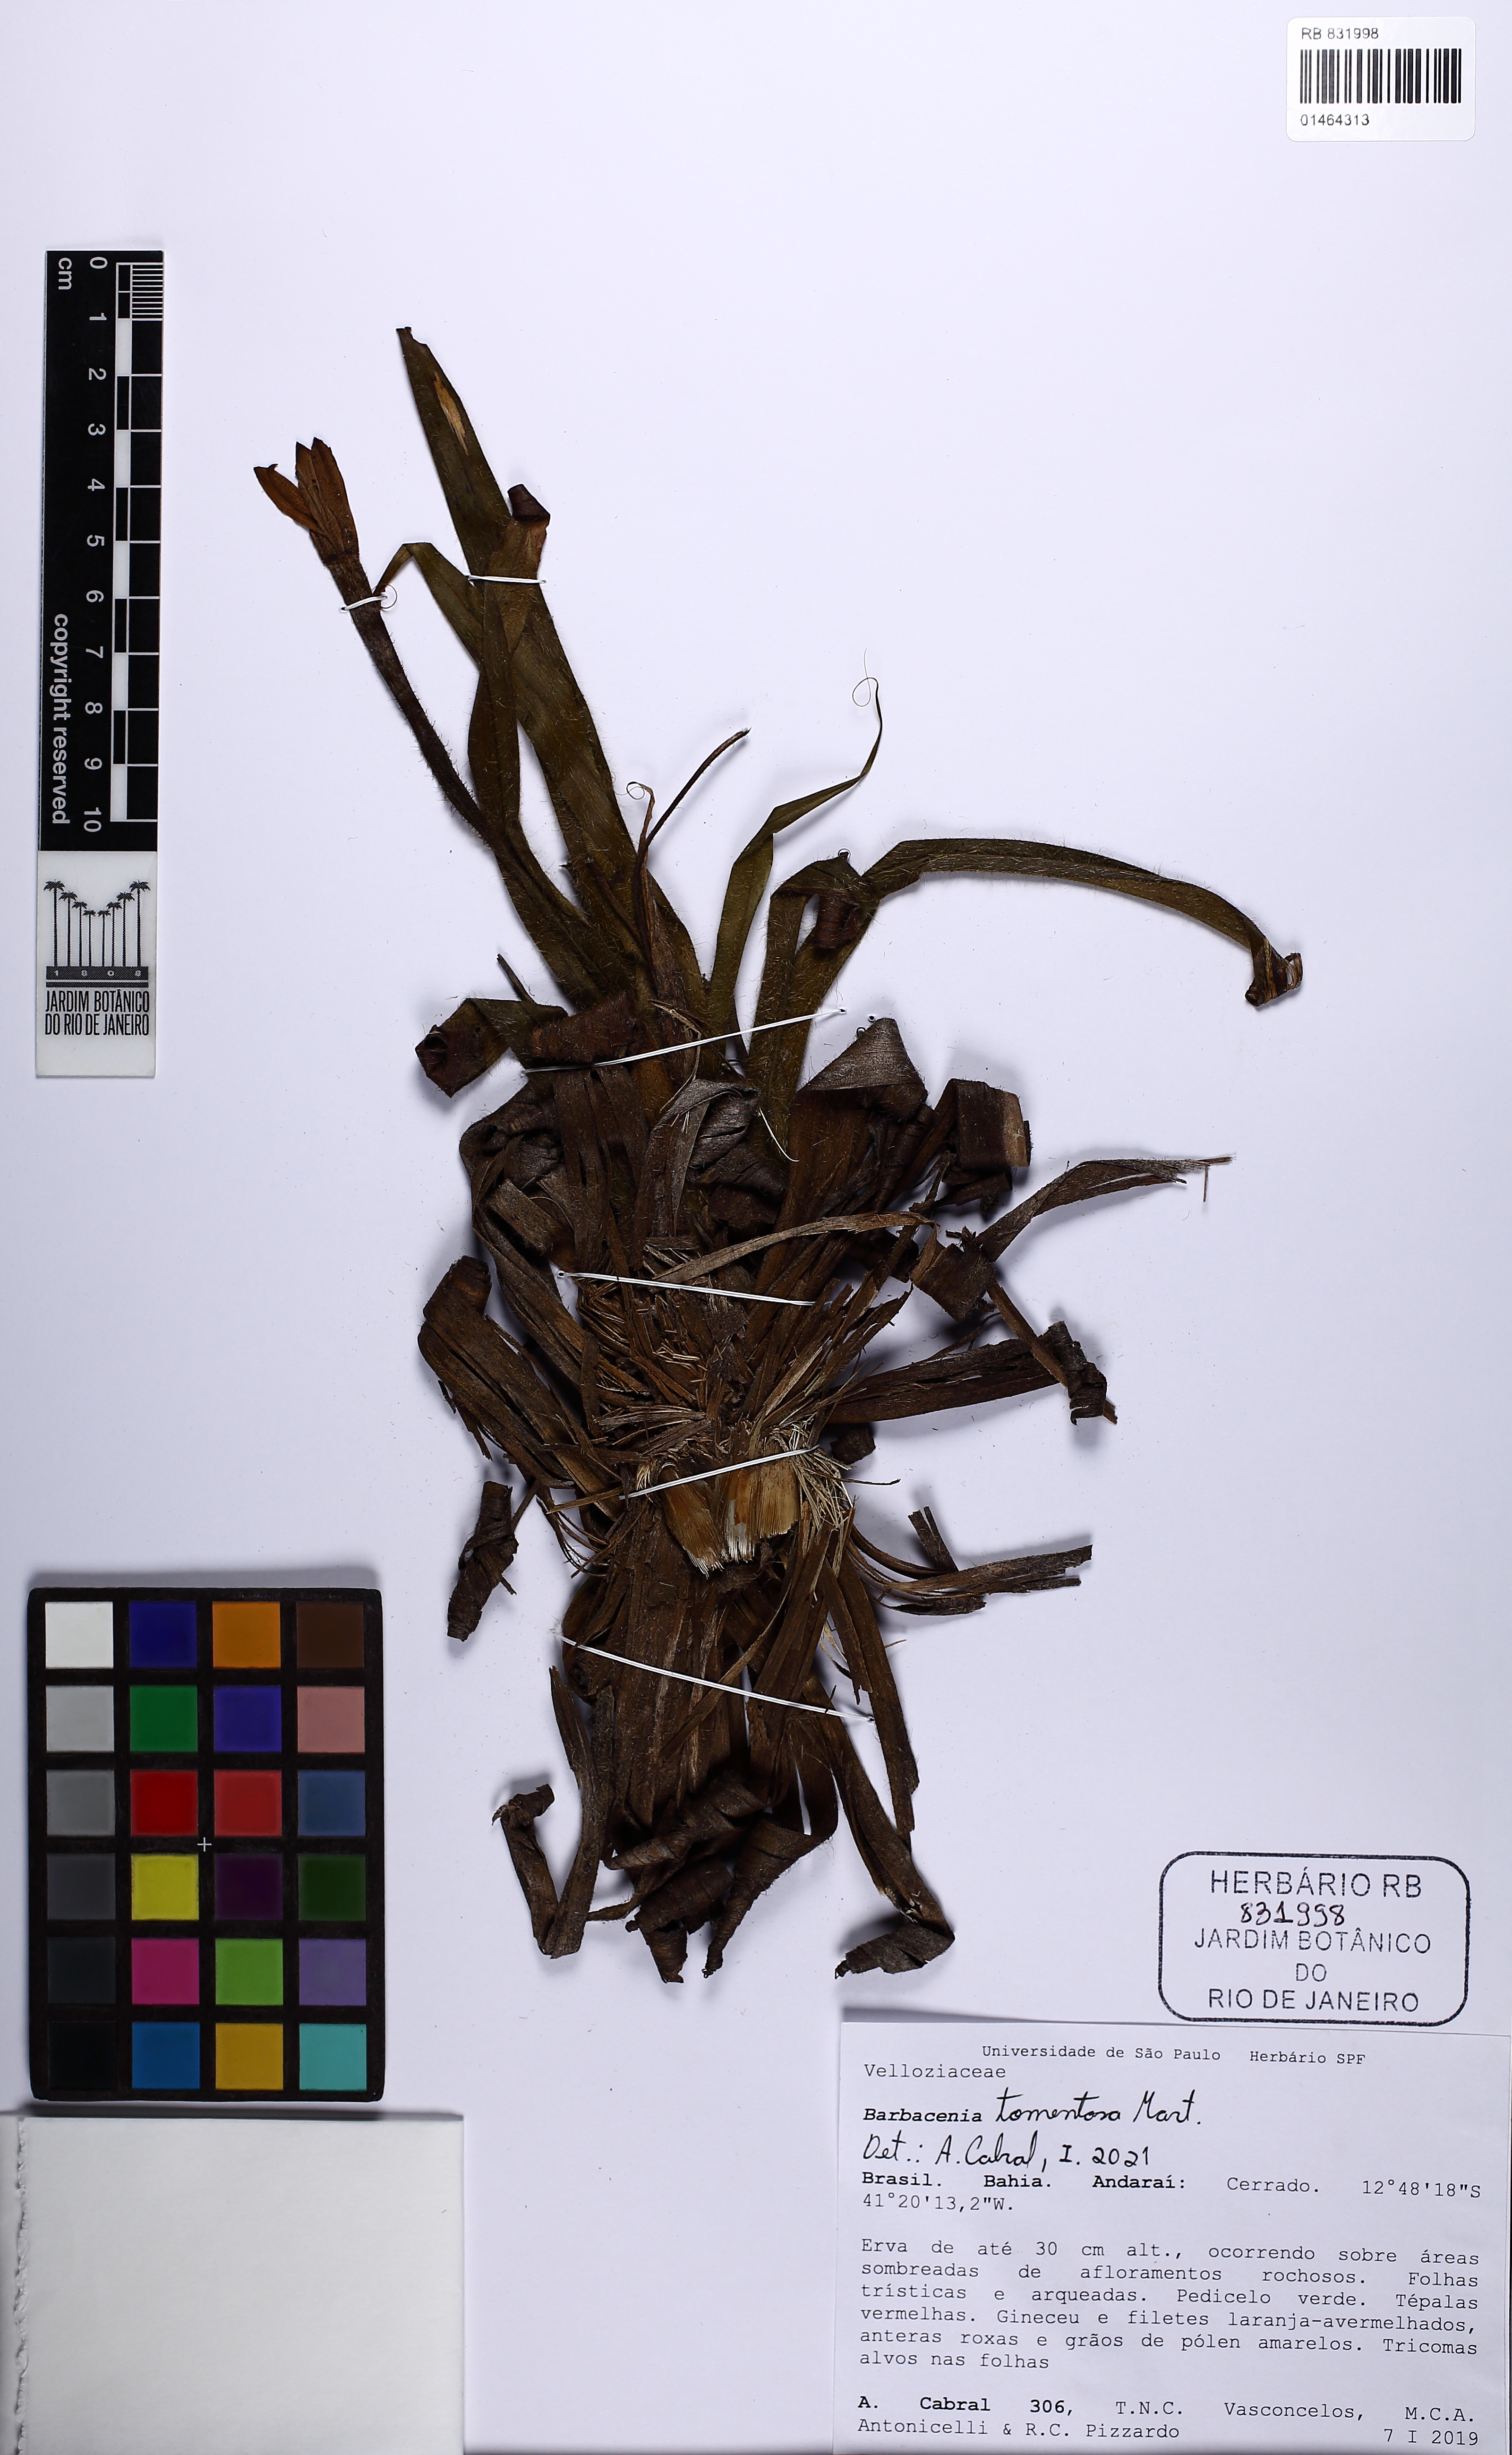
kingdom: Plantae
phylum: Tracheophyta
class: Liliopsida
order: Pandanales
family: Velloziaceae
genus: Barbacenia
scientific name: Barbacenia tomentosa
